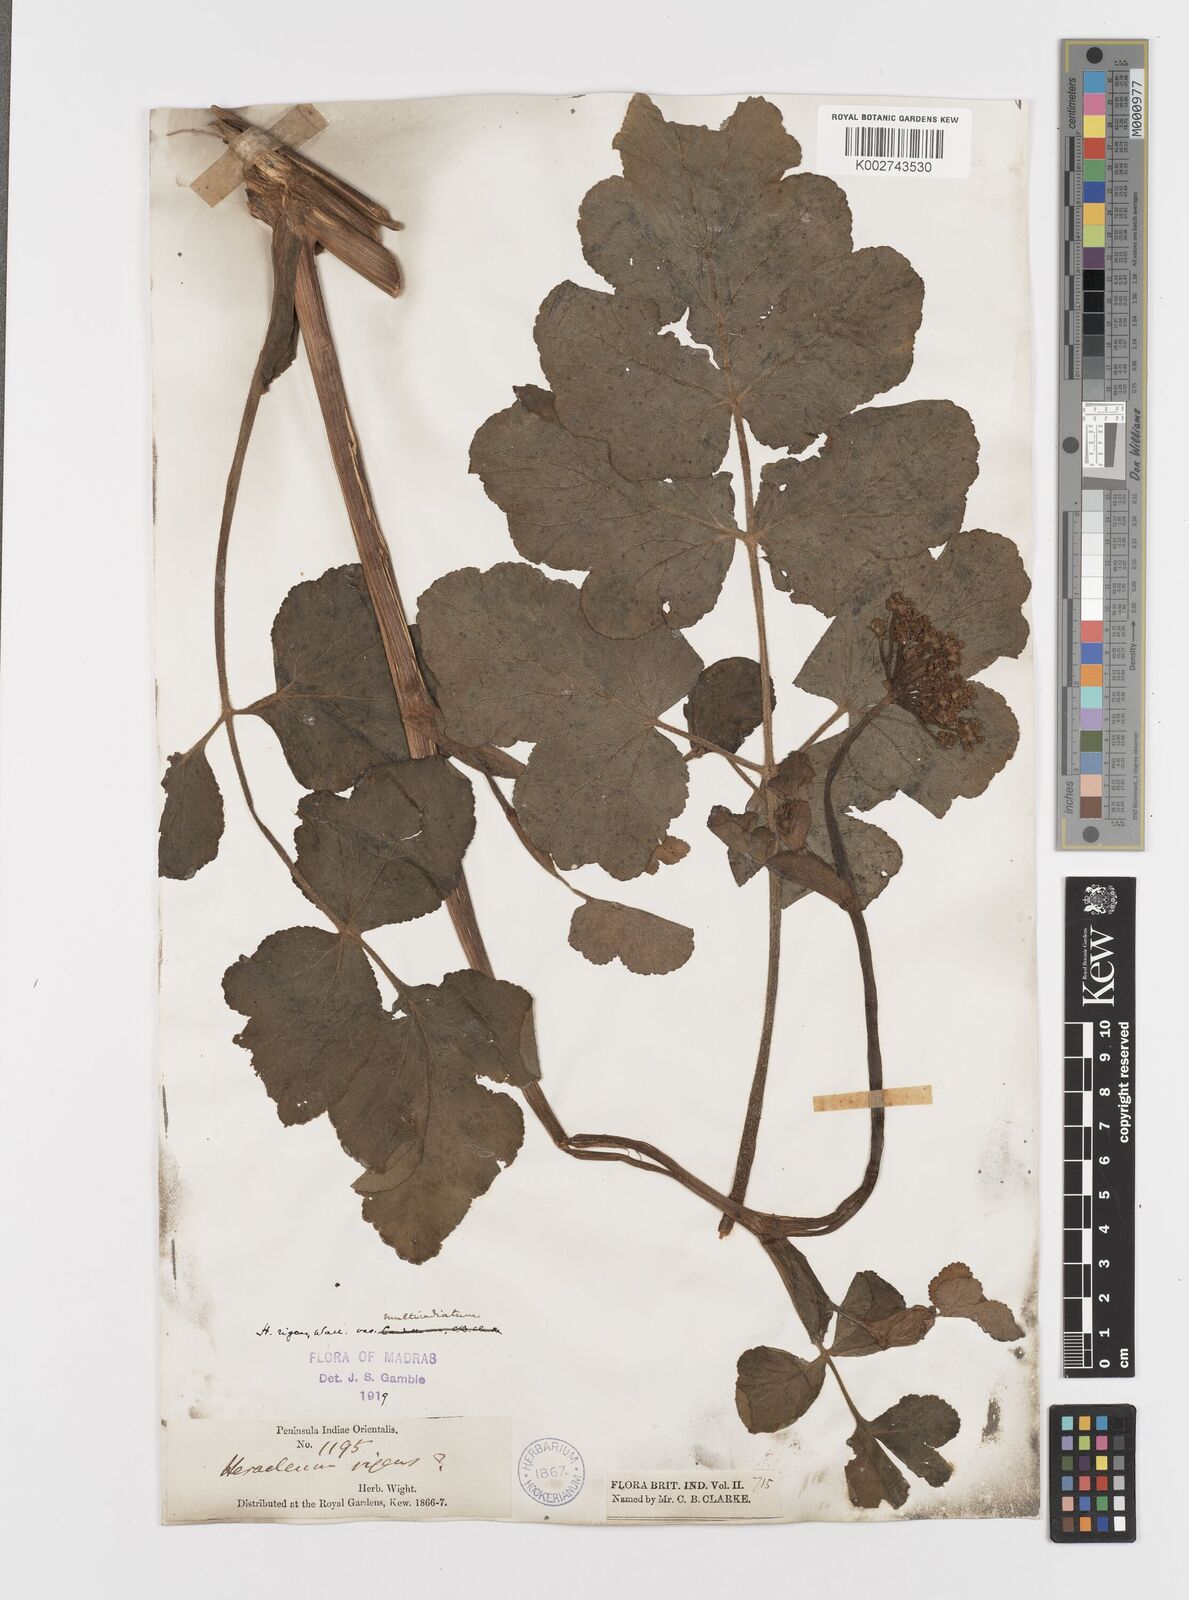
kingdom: Plantae
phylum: Tracheophyta
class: Magnoliopsida
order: Apiales
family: Apiaceae
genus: Tetrataenium
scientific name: Tetrataenium rigens
